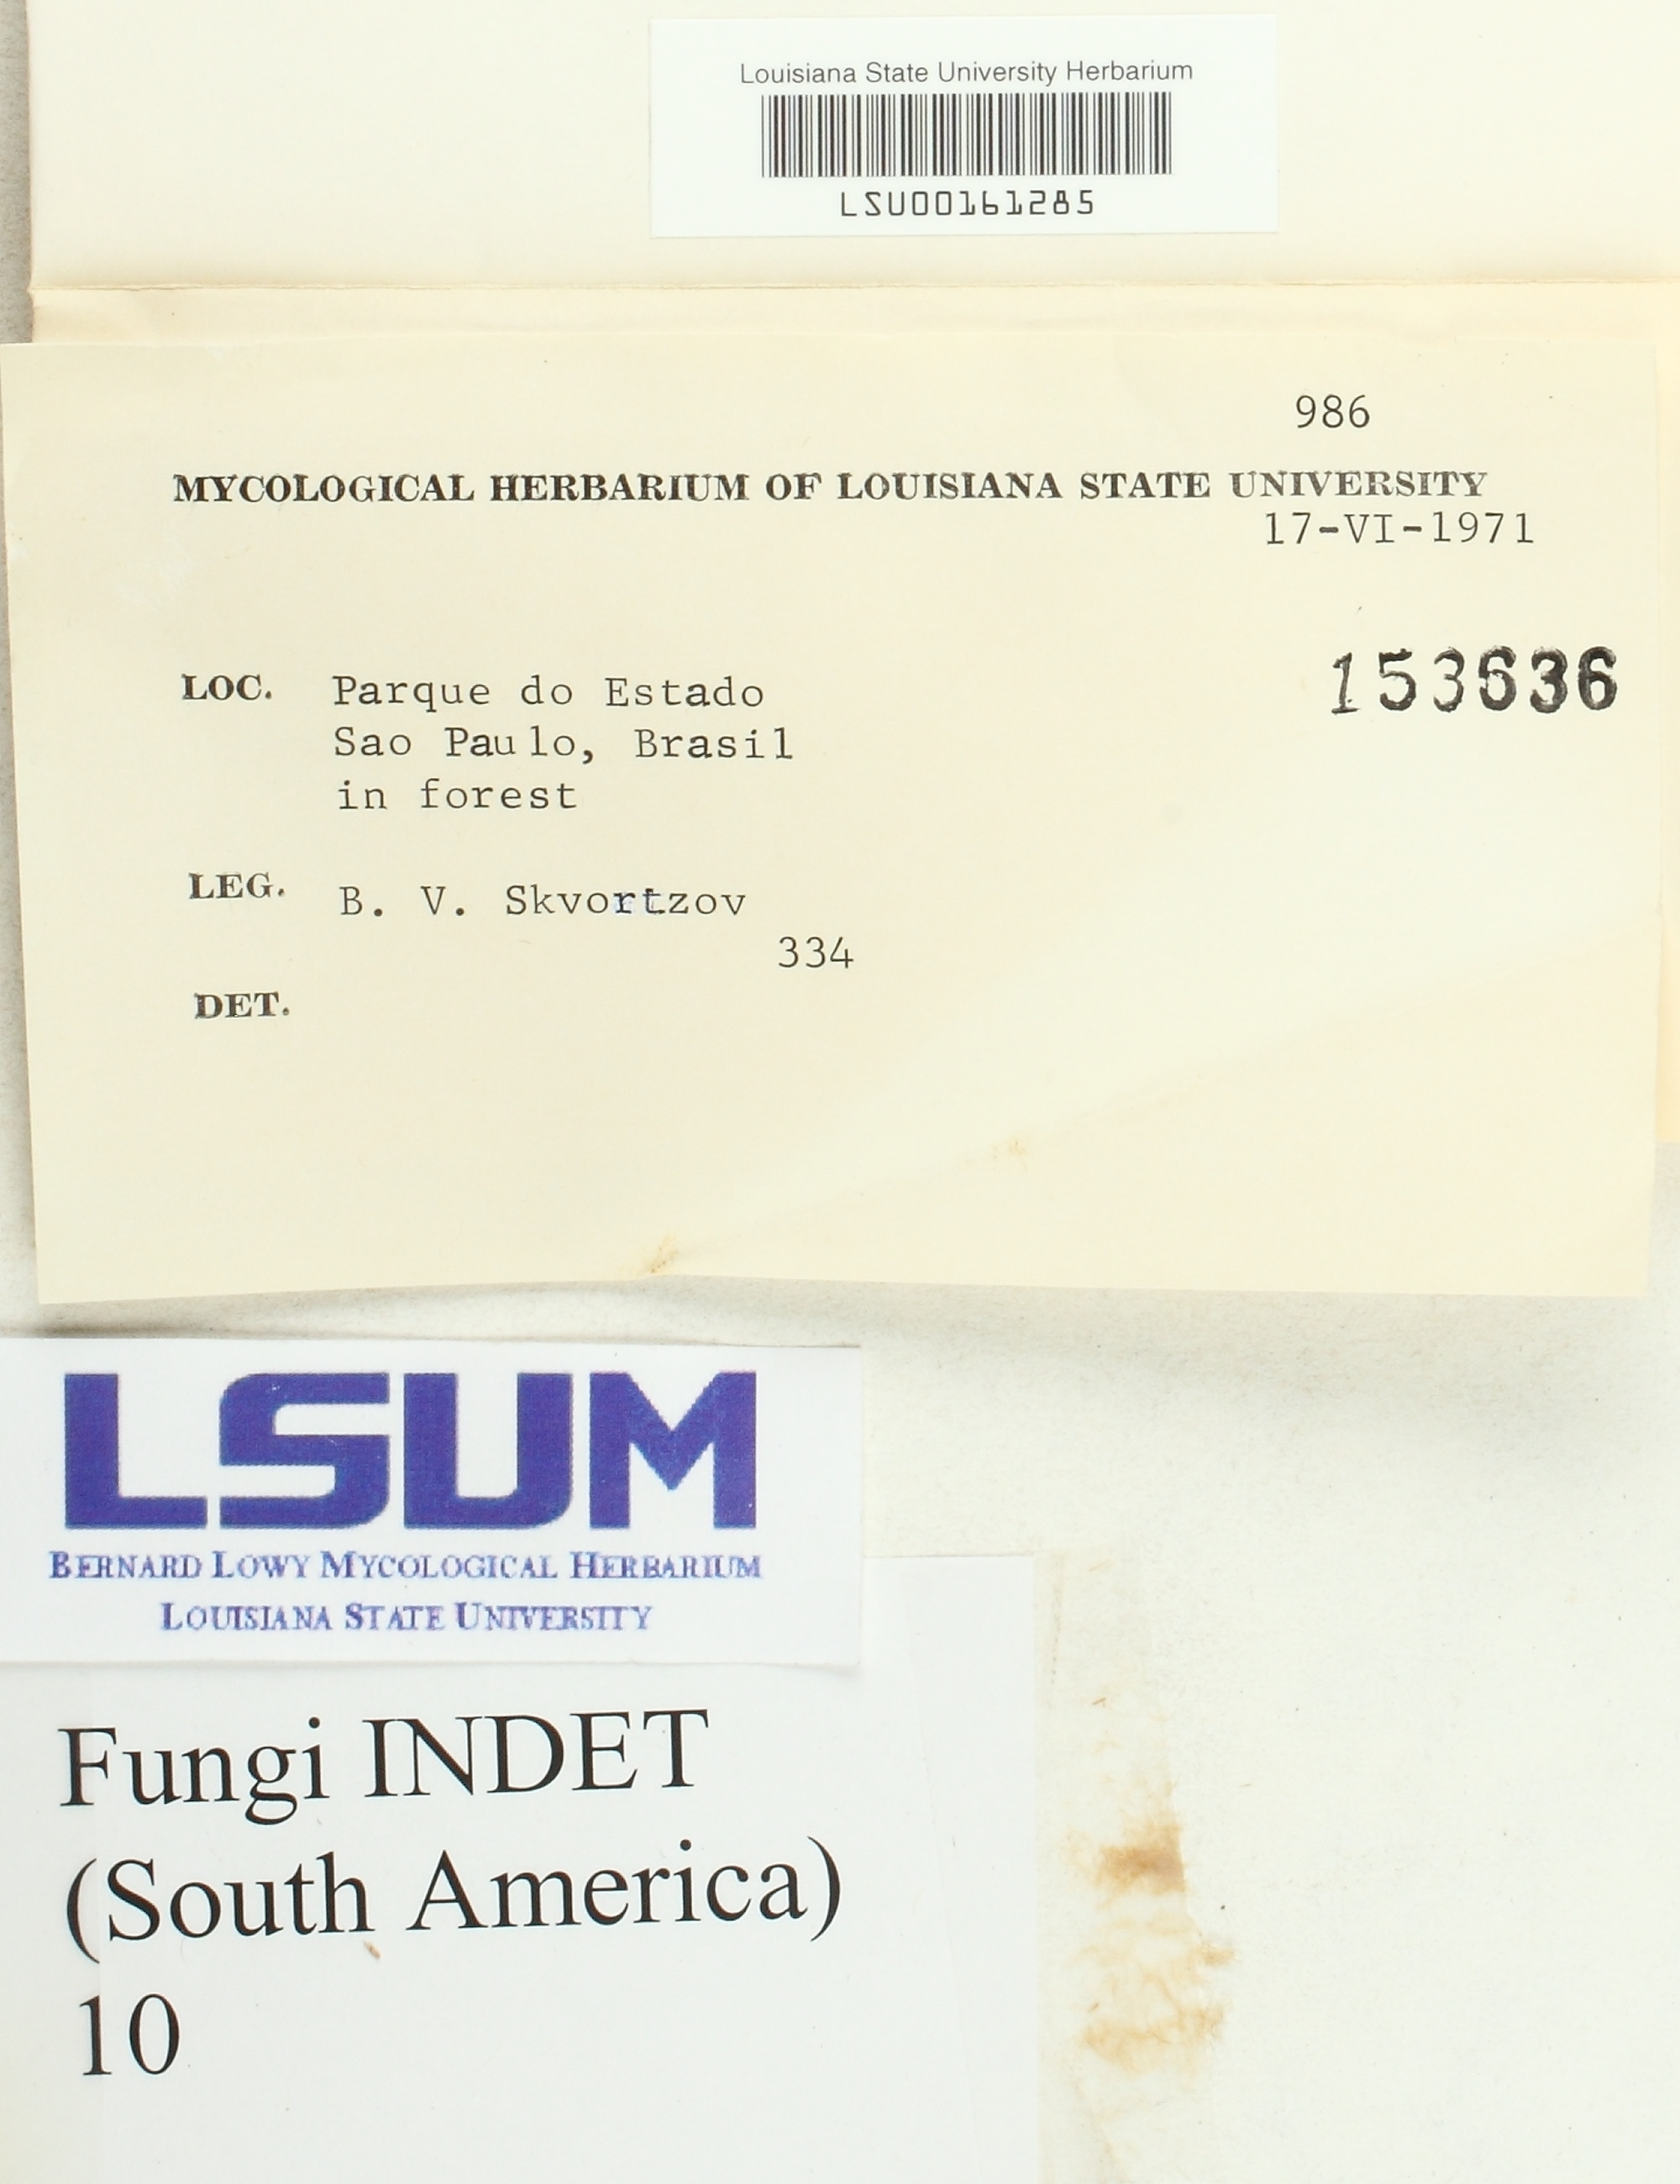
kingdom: Fungi
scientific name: Fungi
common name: Fungi
